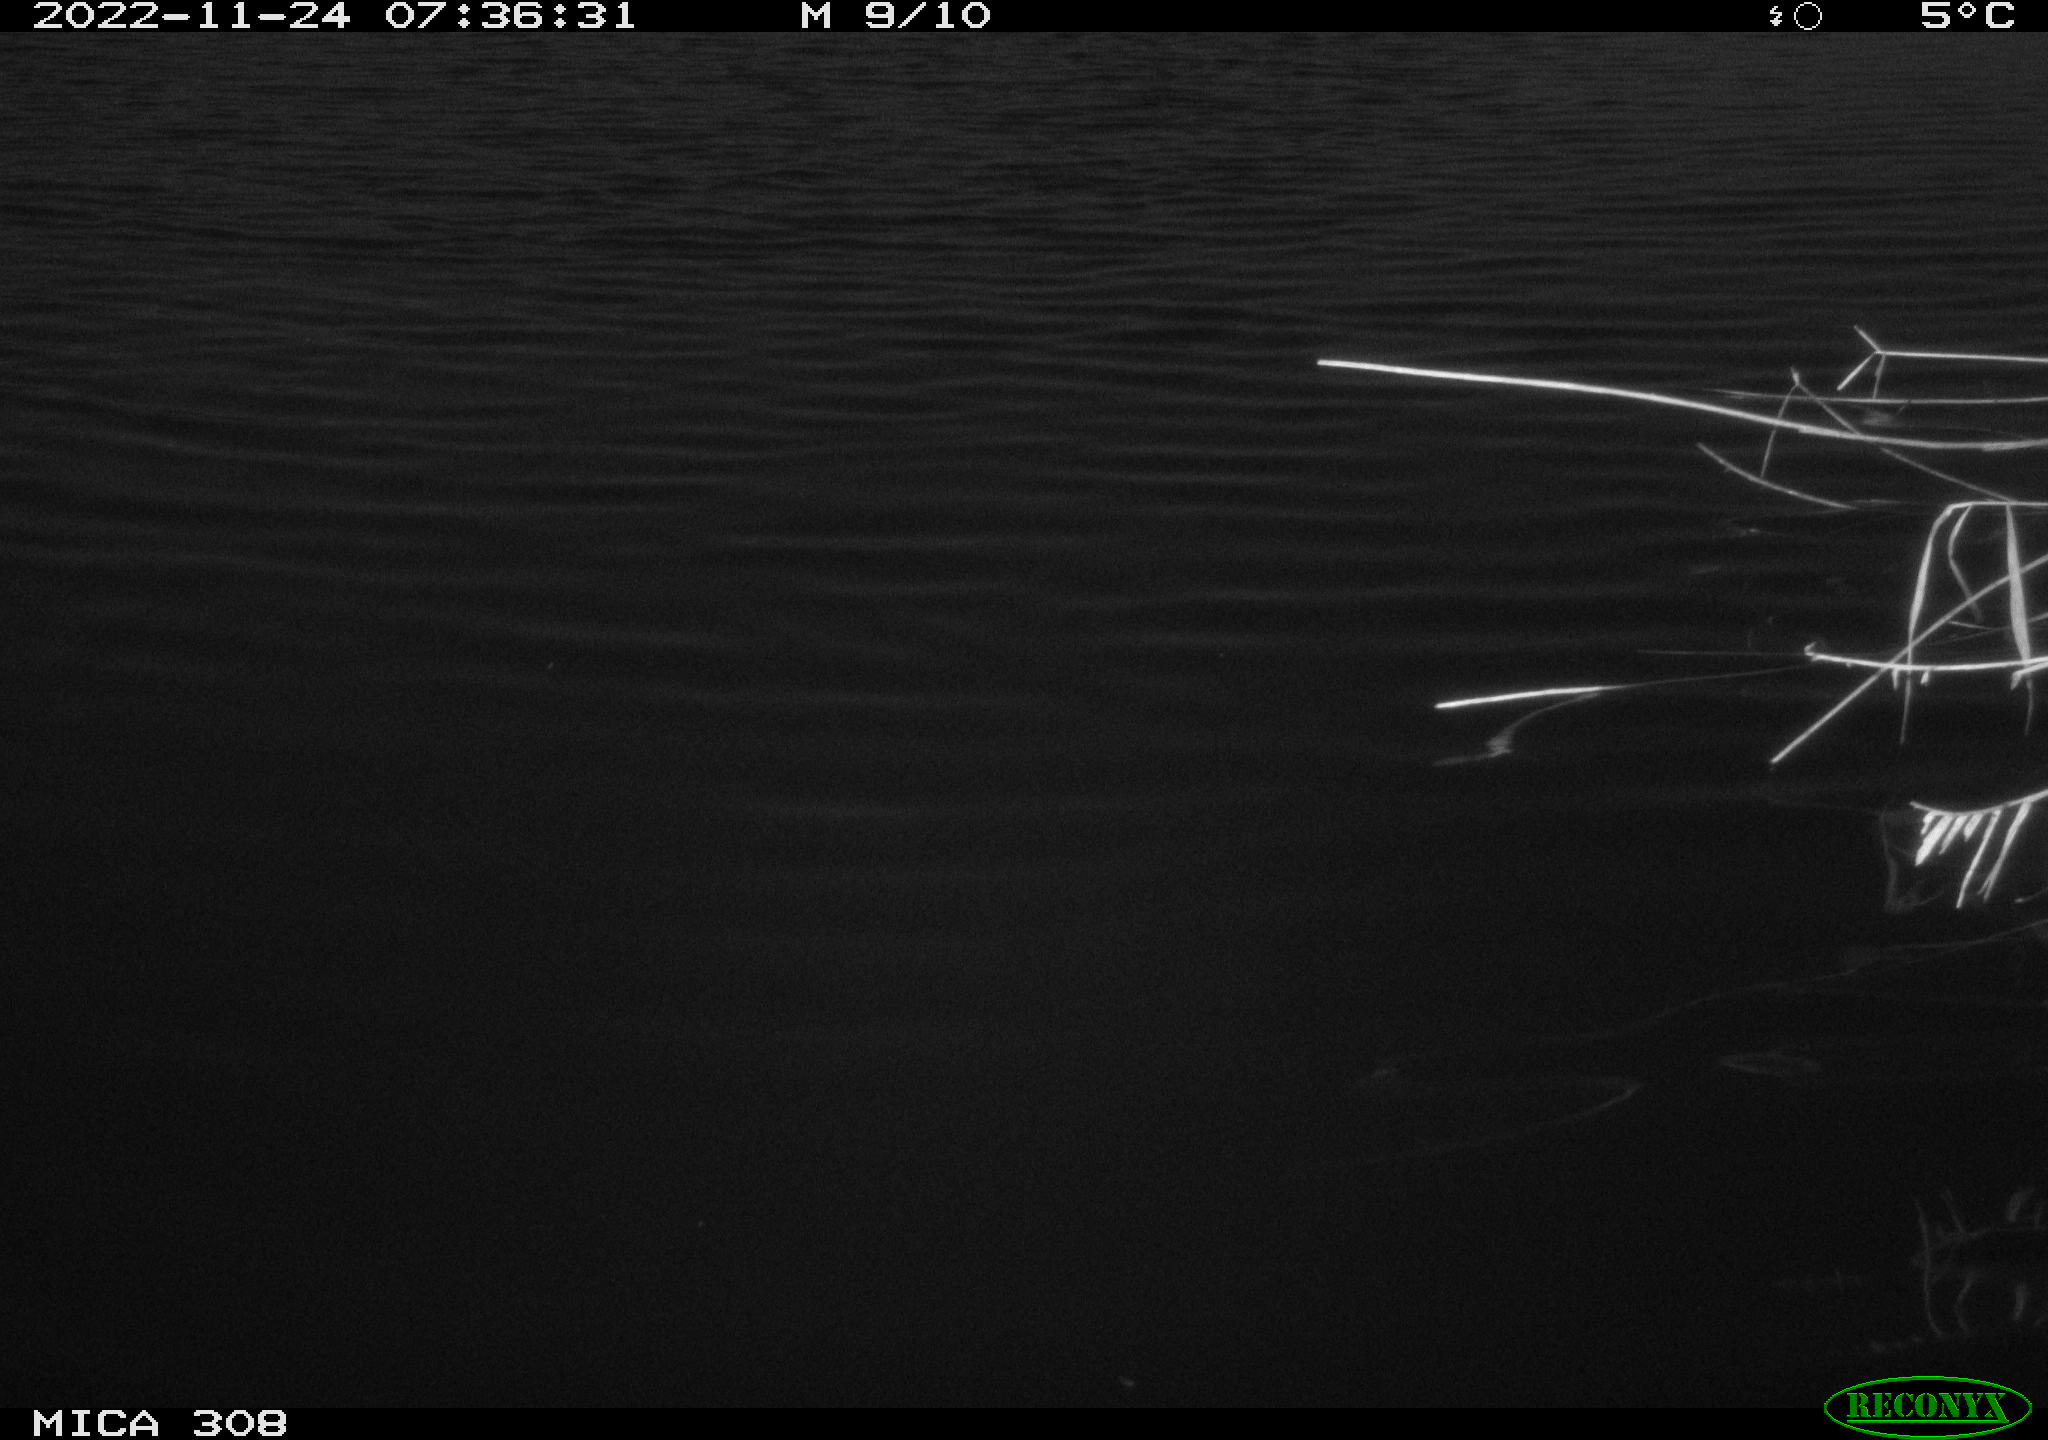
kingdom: Animalia
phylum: Chordata
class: Aves
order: Gruiformes
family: Rallidae
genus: Fulica
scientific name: Fulica atra
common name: Eurasian coot
